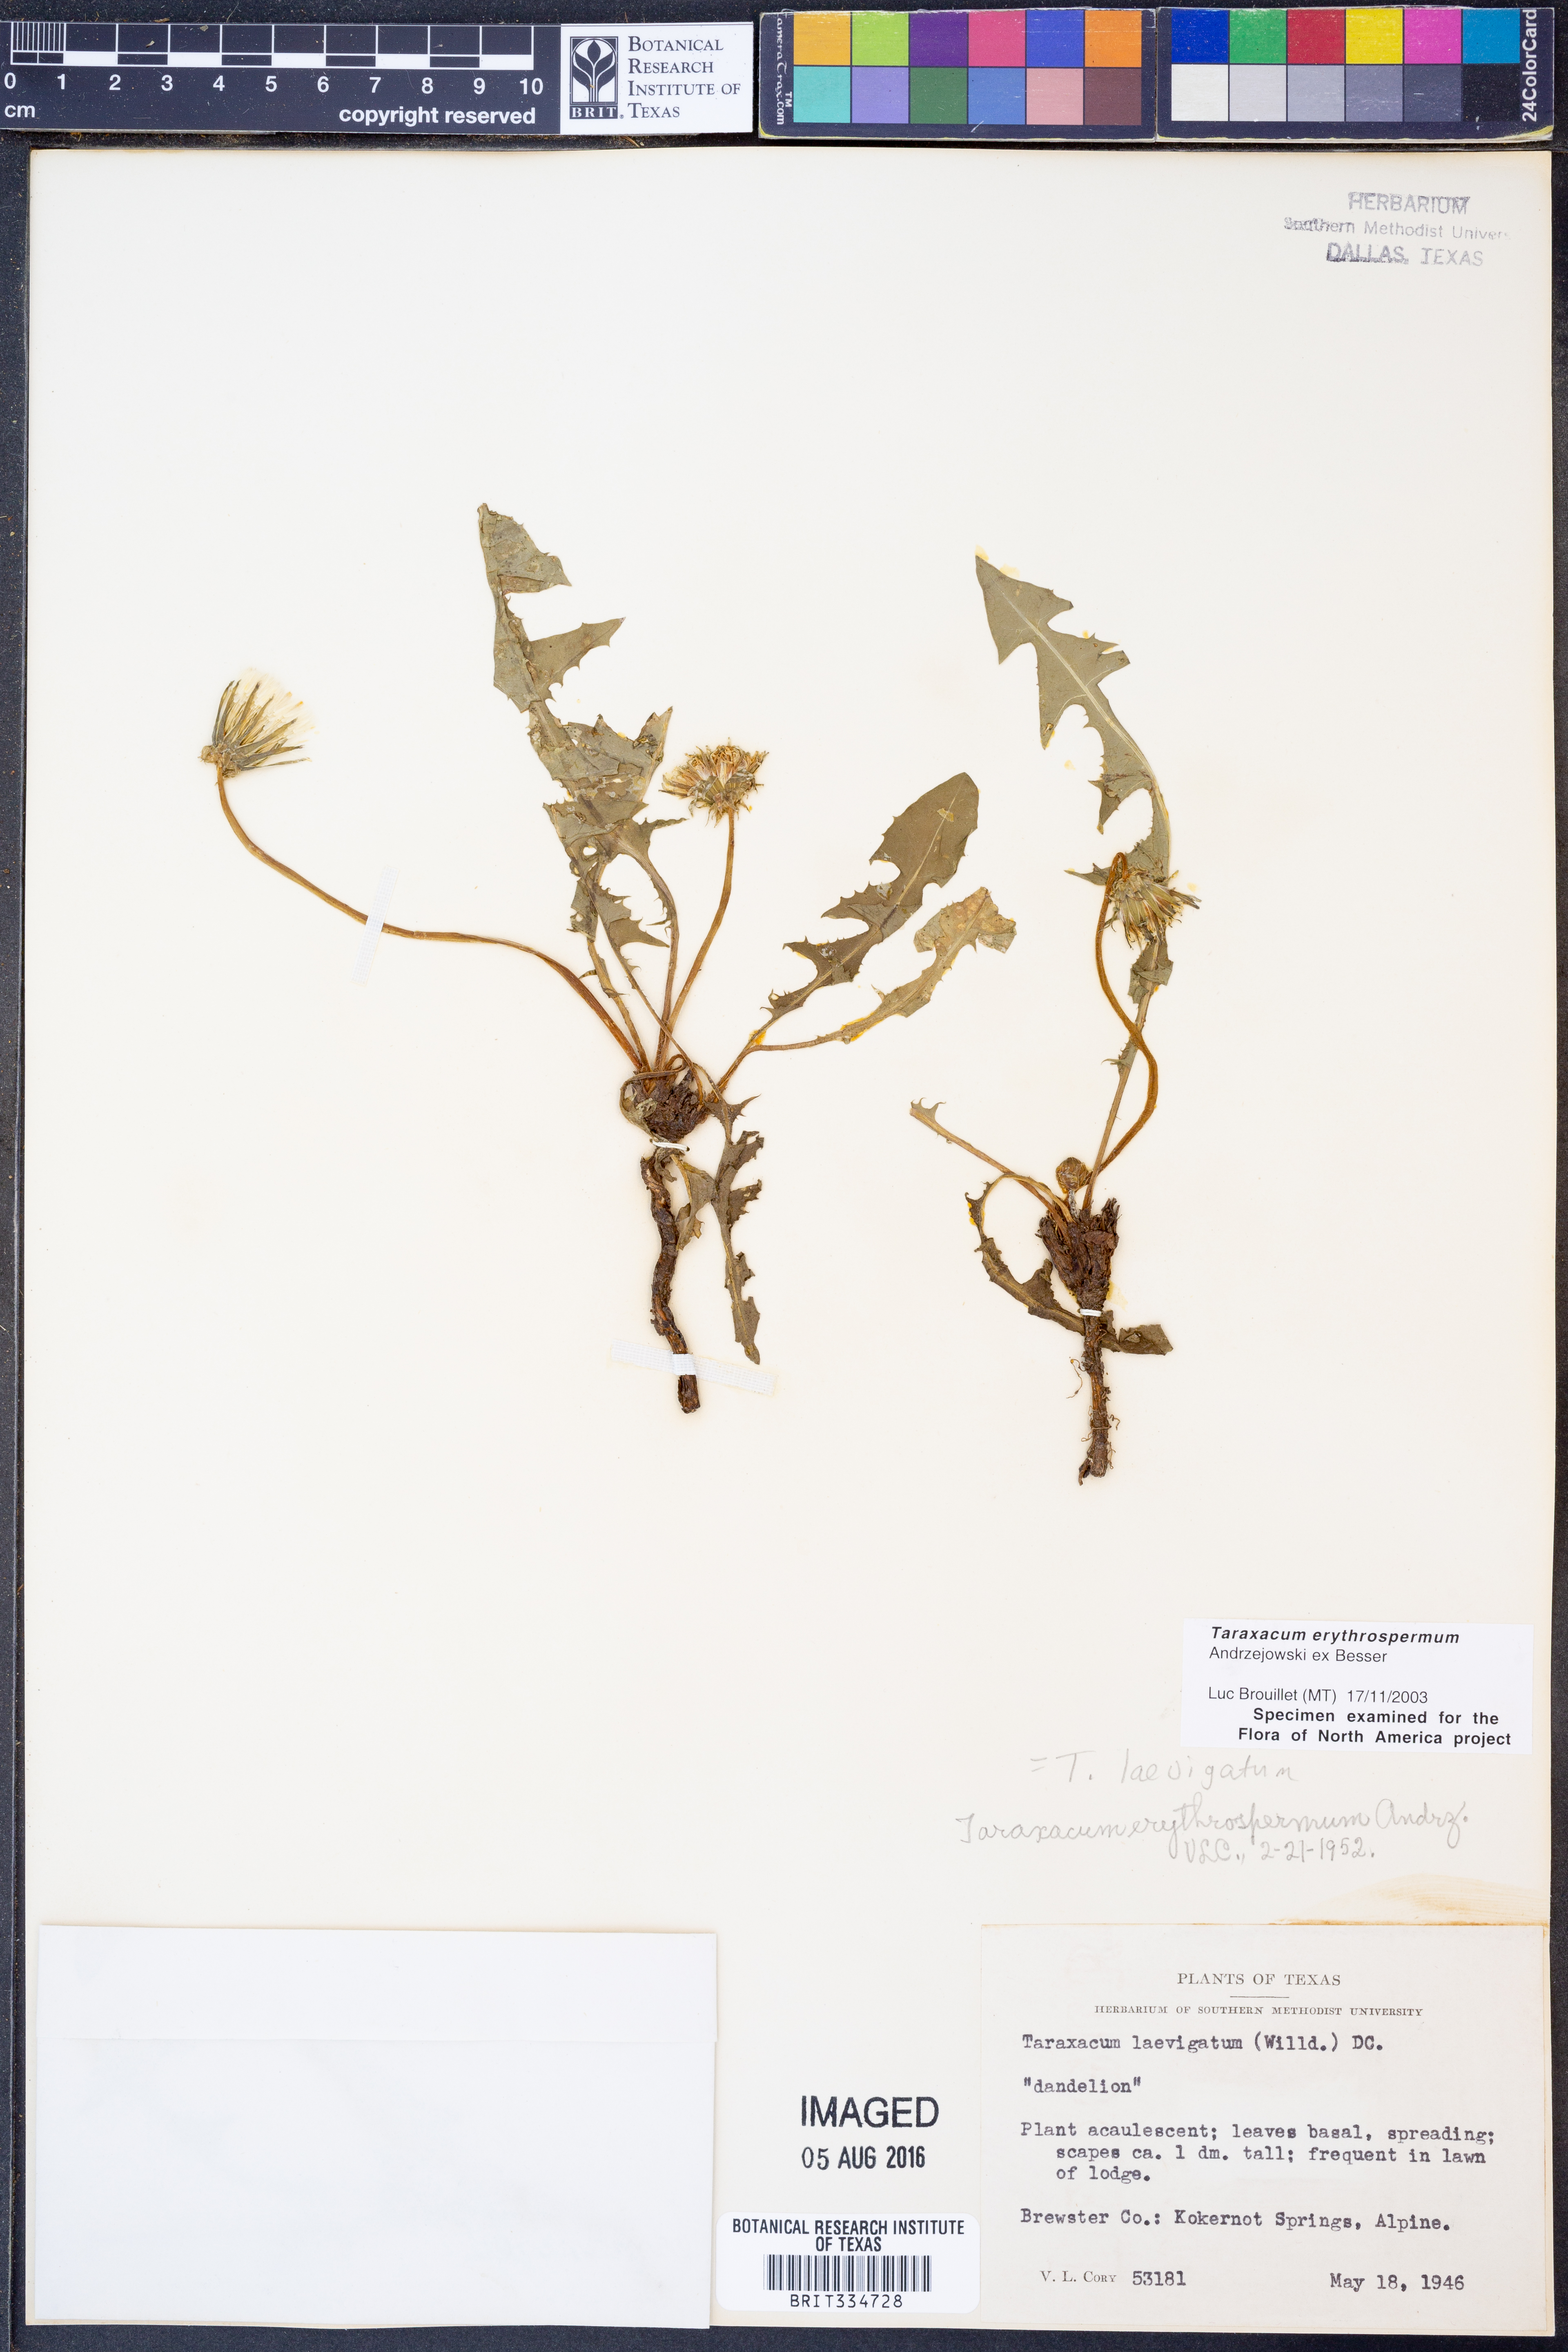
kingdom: Plantae
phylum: Tracheophyta
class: Magnoliopsida
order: Asterales
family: Asteraceae
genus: Taraxacum
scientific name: Taraxacum erythrospermum
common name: Rock dandelion
